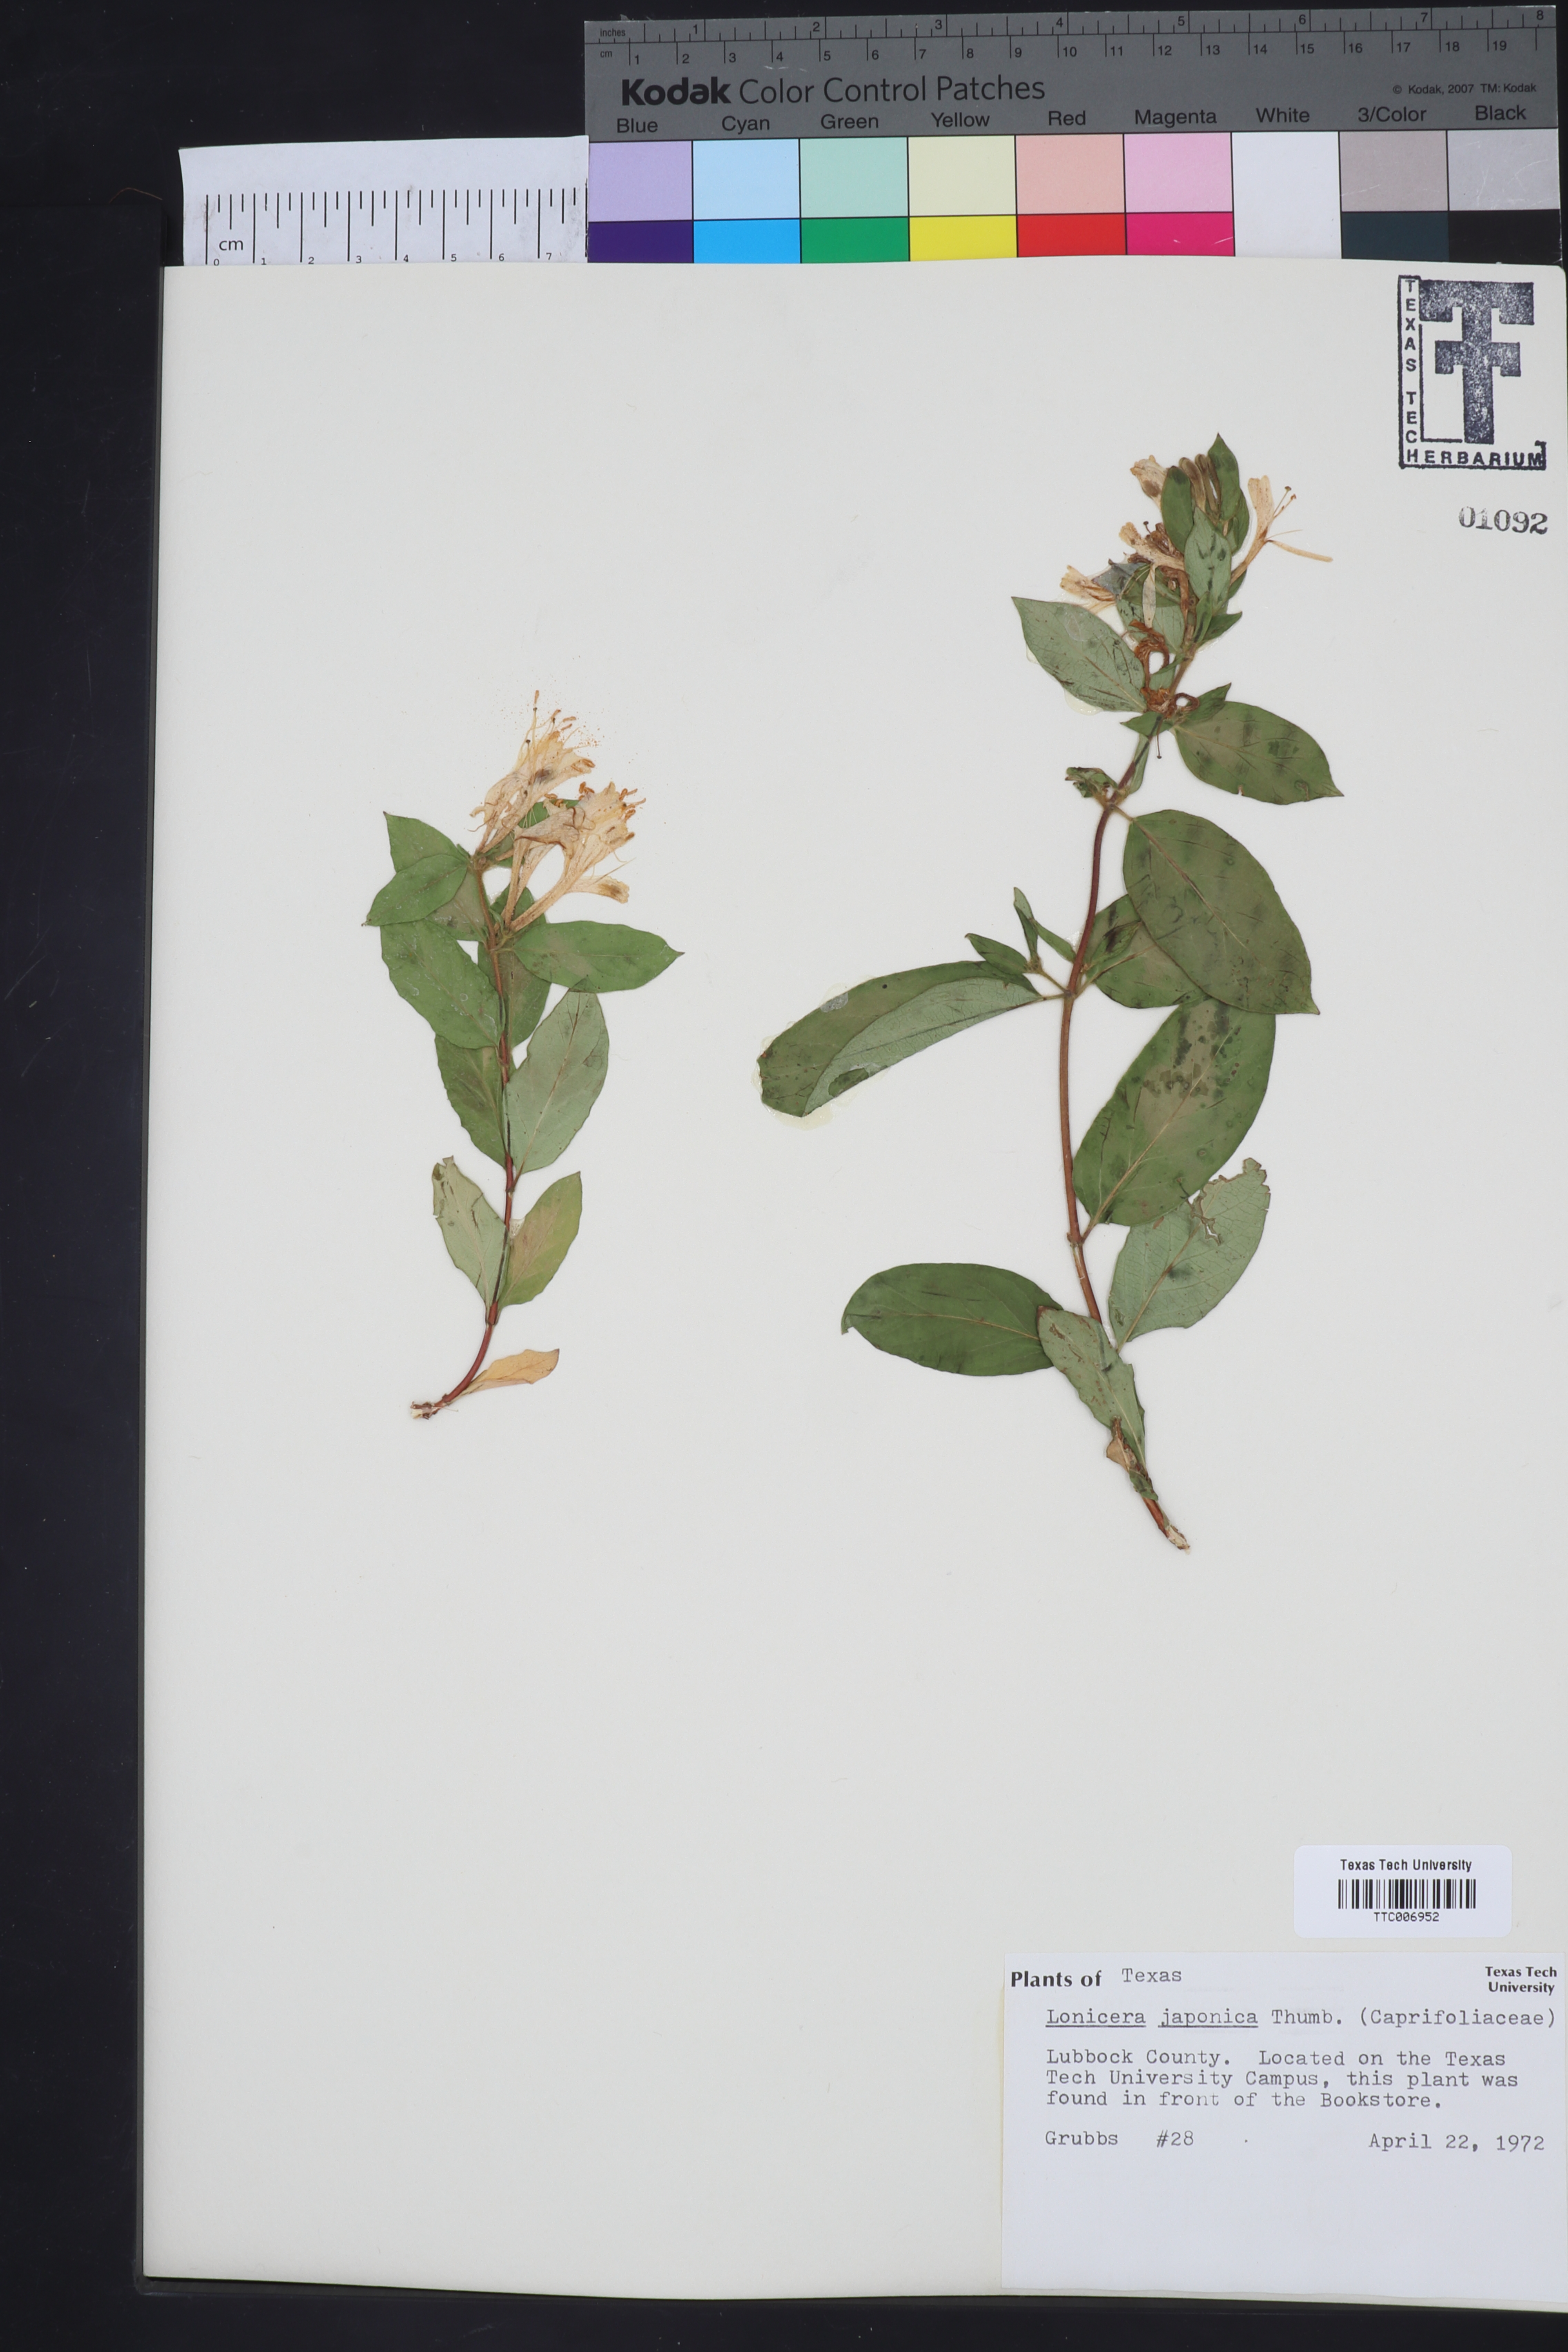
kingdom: Plantae
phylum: Tracheophyta
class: Magnoliopsida
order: Dipsacales
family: Caprifoliaceae
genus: Lonicera
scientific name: Lonicera japonica
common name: Japanese honeysuckle
